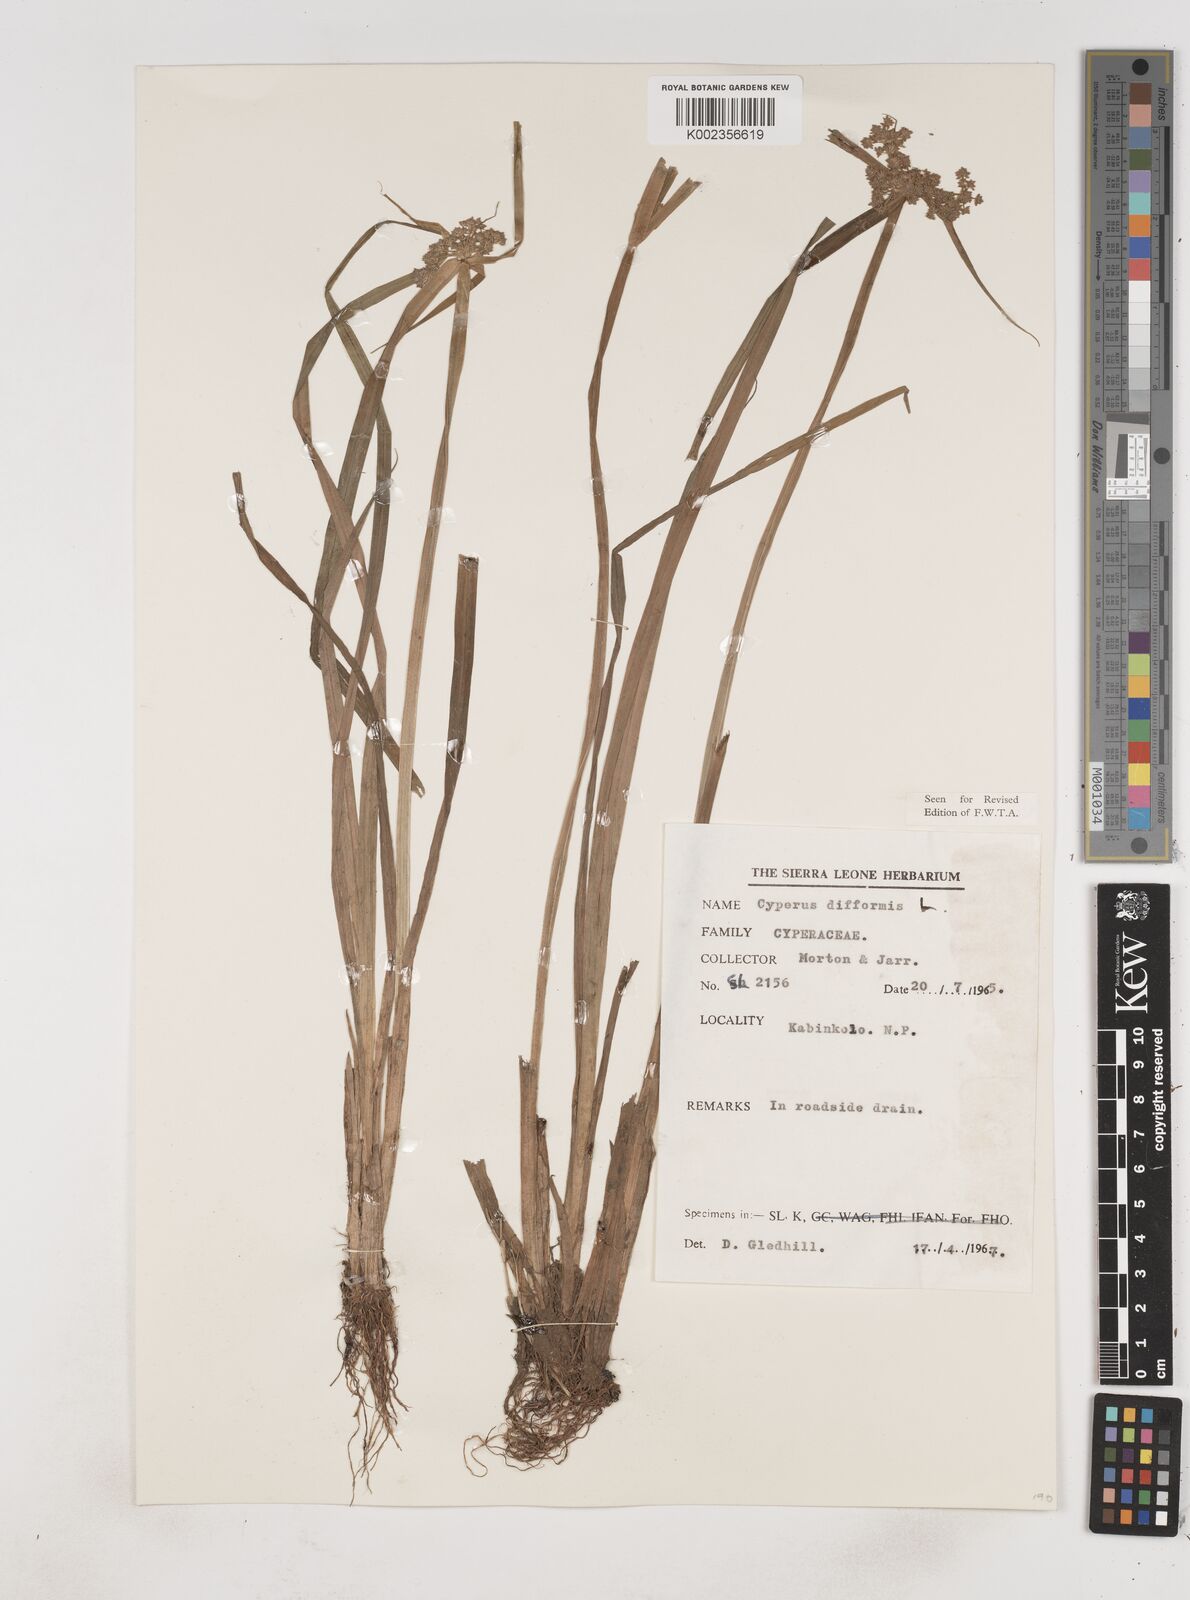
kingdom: Plantae
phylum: Tracheophyta
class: Liliopsida
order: Poales
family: Cyperaceae
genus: Cyperus
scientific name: Cyperus difformis
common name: Variable flatsedge
